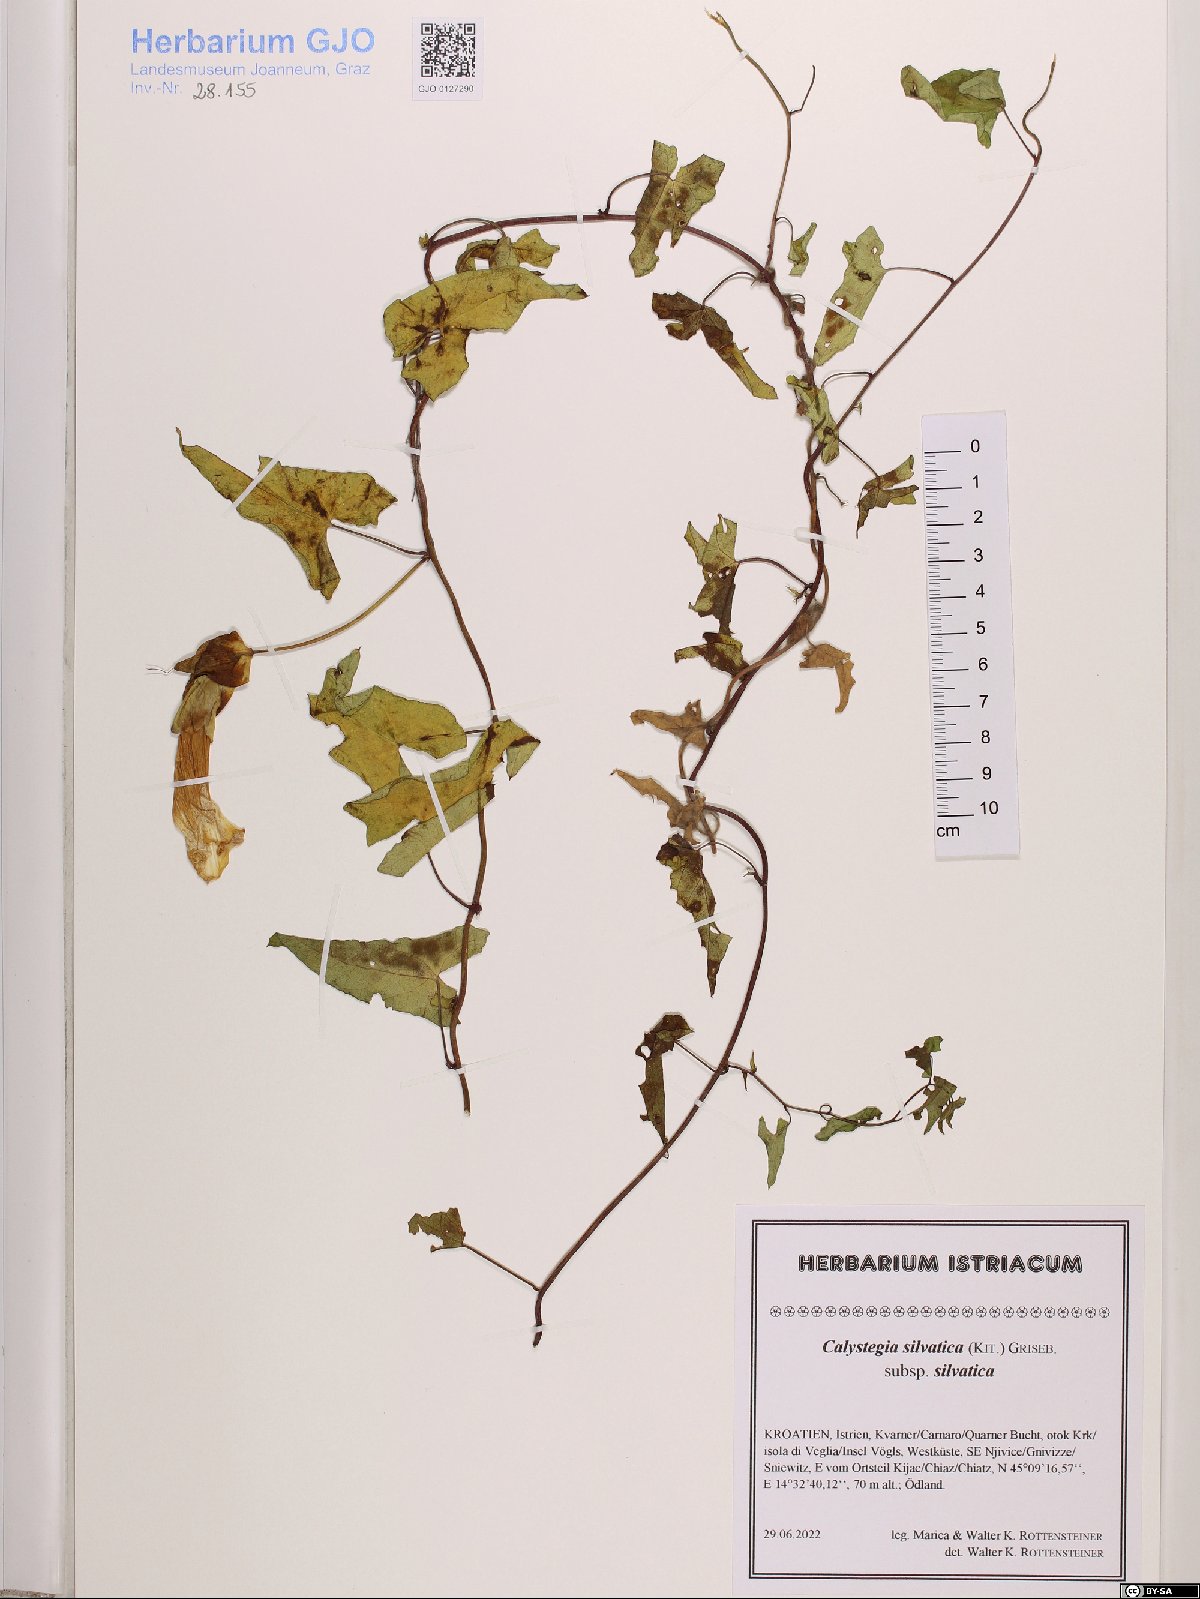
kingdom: Plantae
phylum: Tracheophyta
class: Magnoliopsida
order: Solanales
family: Convolvulaceae
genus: Calystegia
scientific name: Calystegia silvatica
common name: Large bindweed
